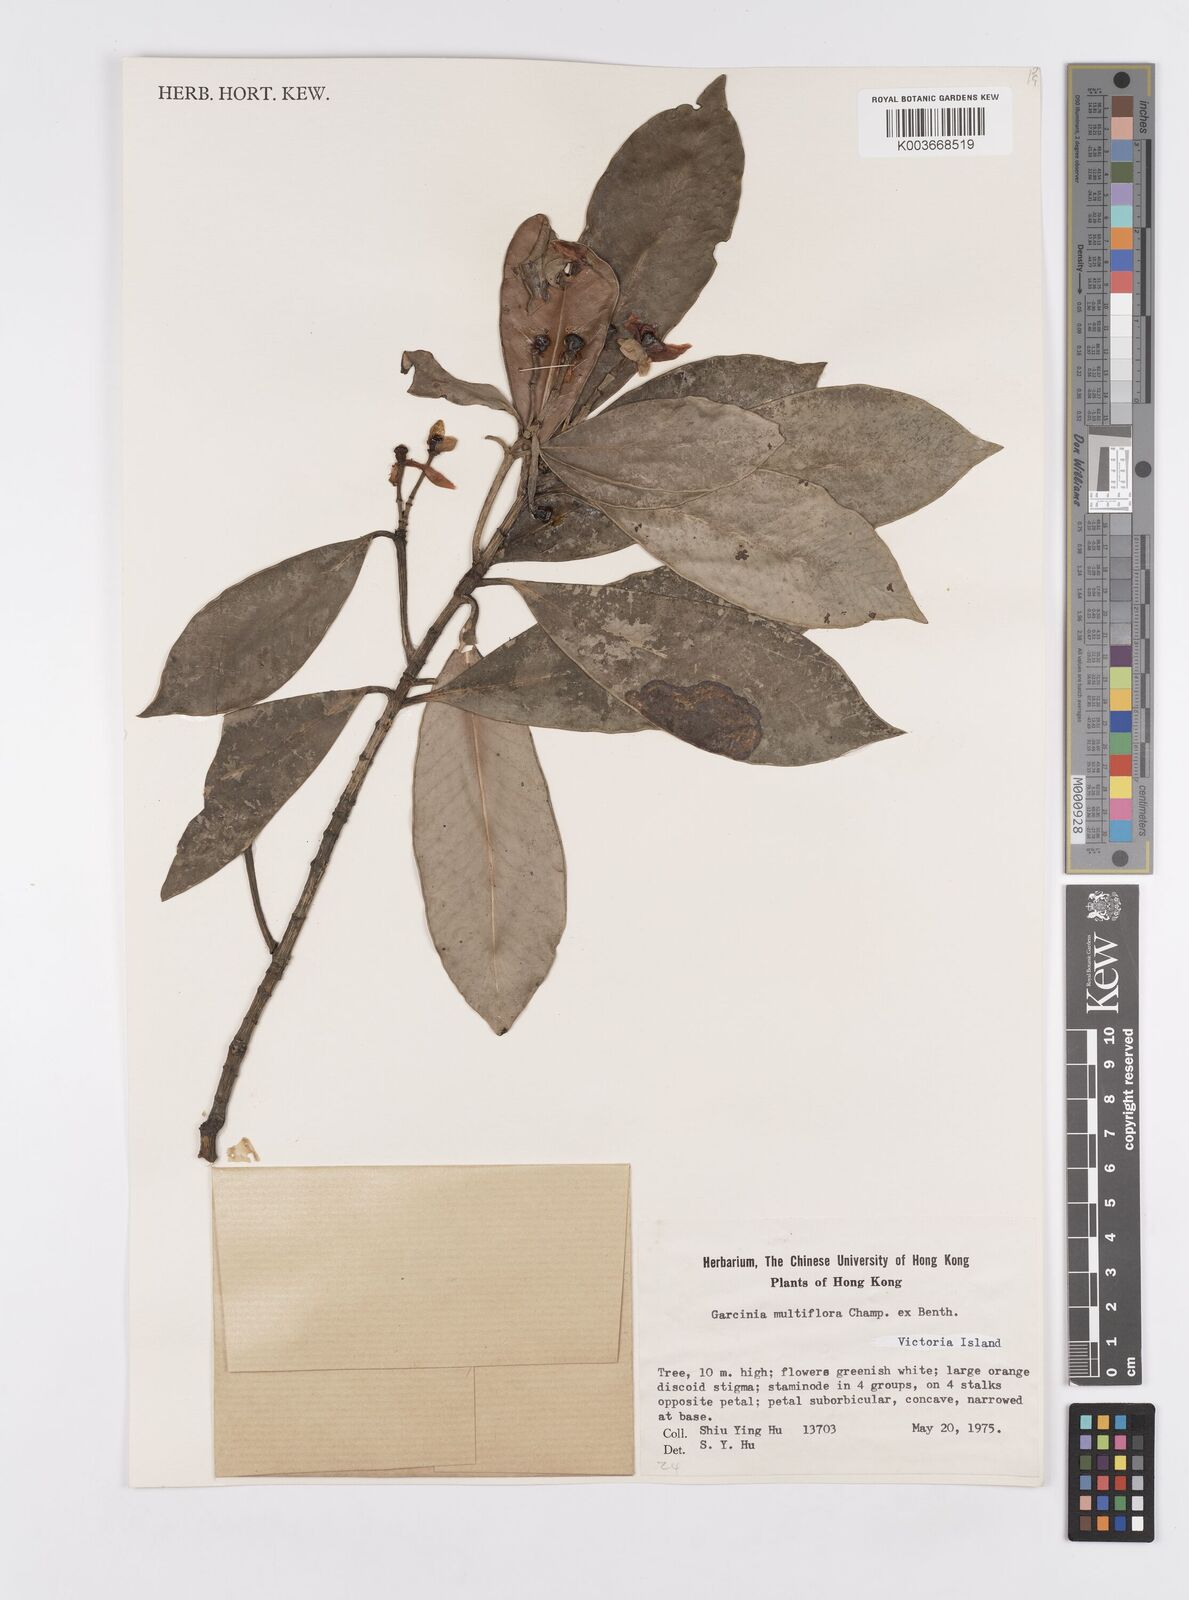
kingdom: Plantae
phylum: Tracheophyta
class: Magnoliopsida
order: Malpighiales
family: Clusiaceae
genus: Garcinia
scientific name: Garcinia multiflora
